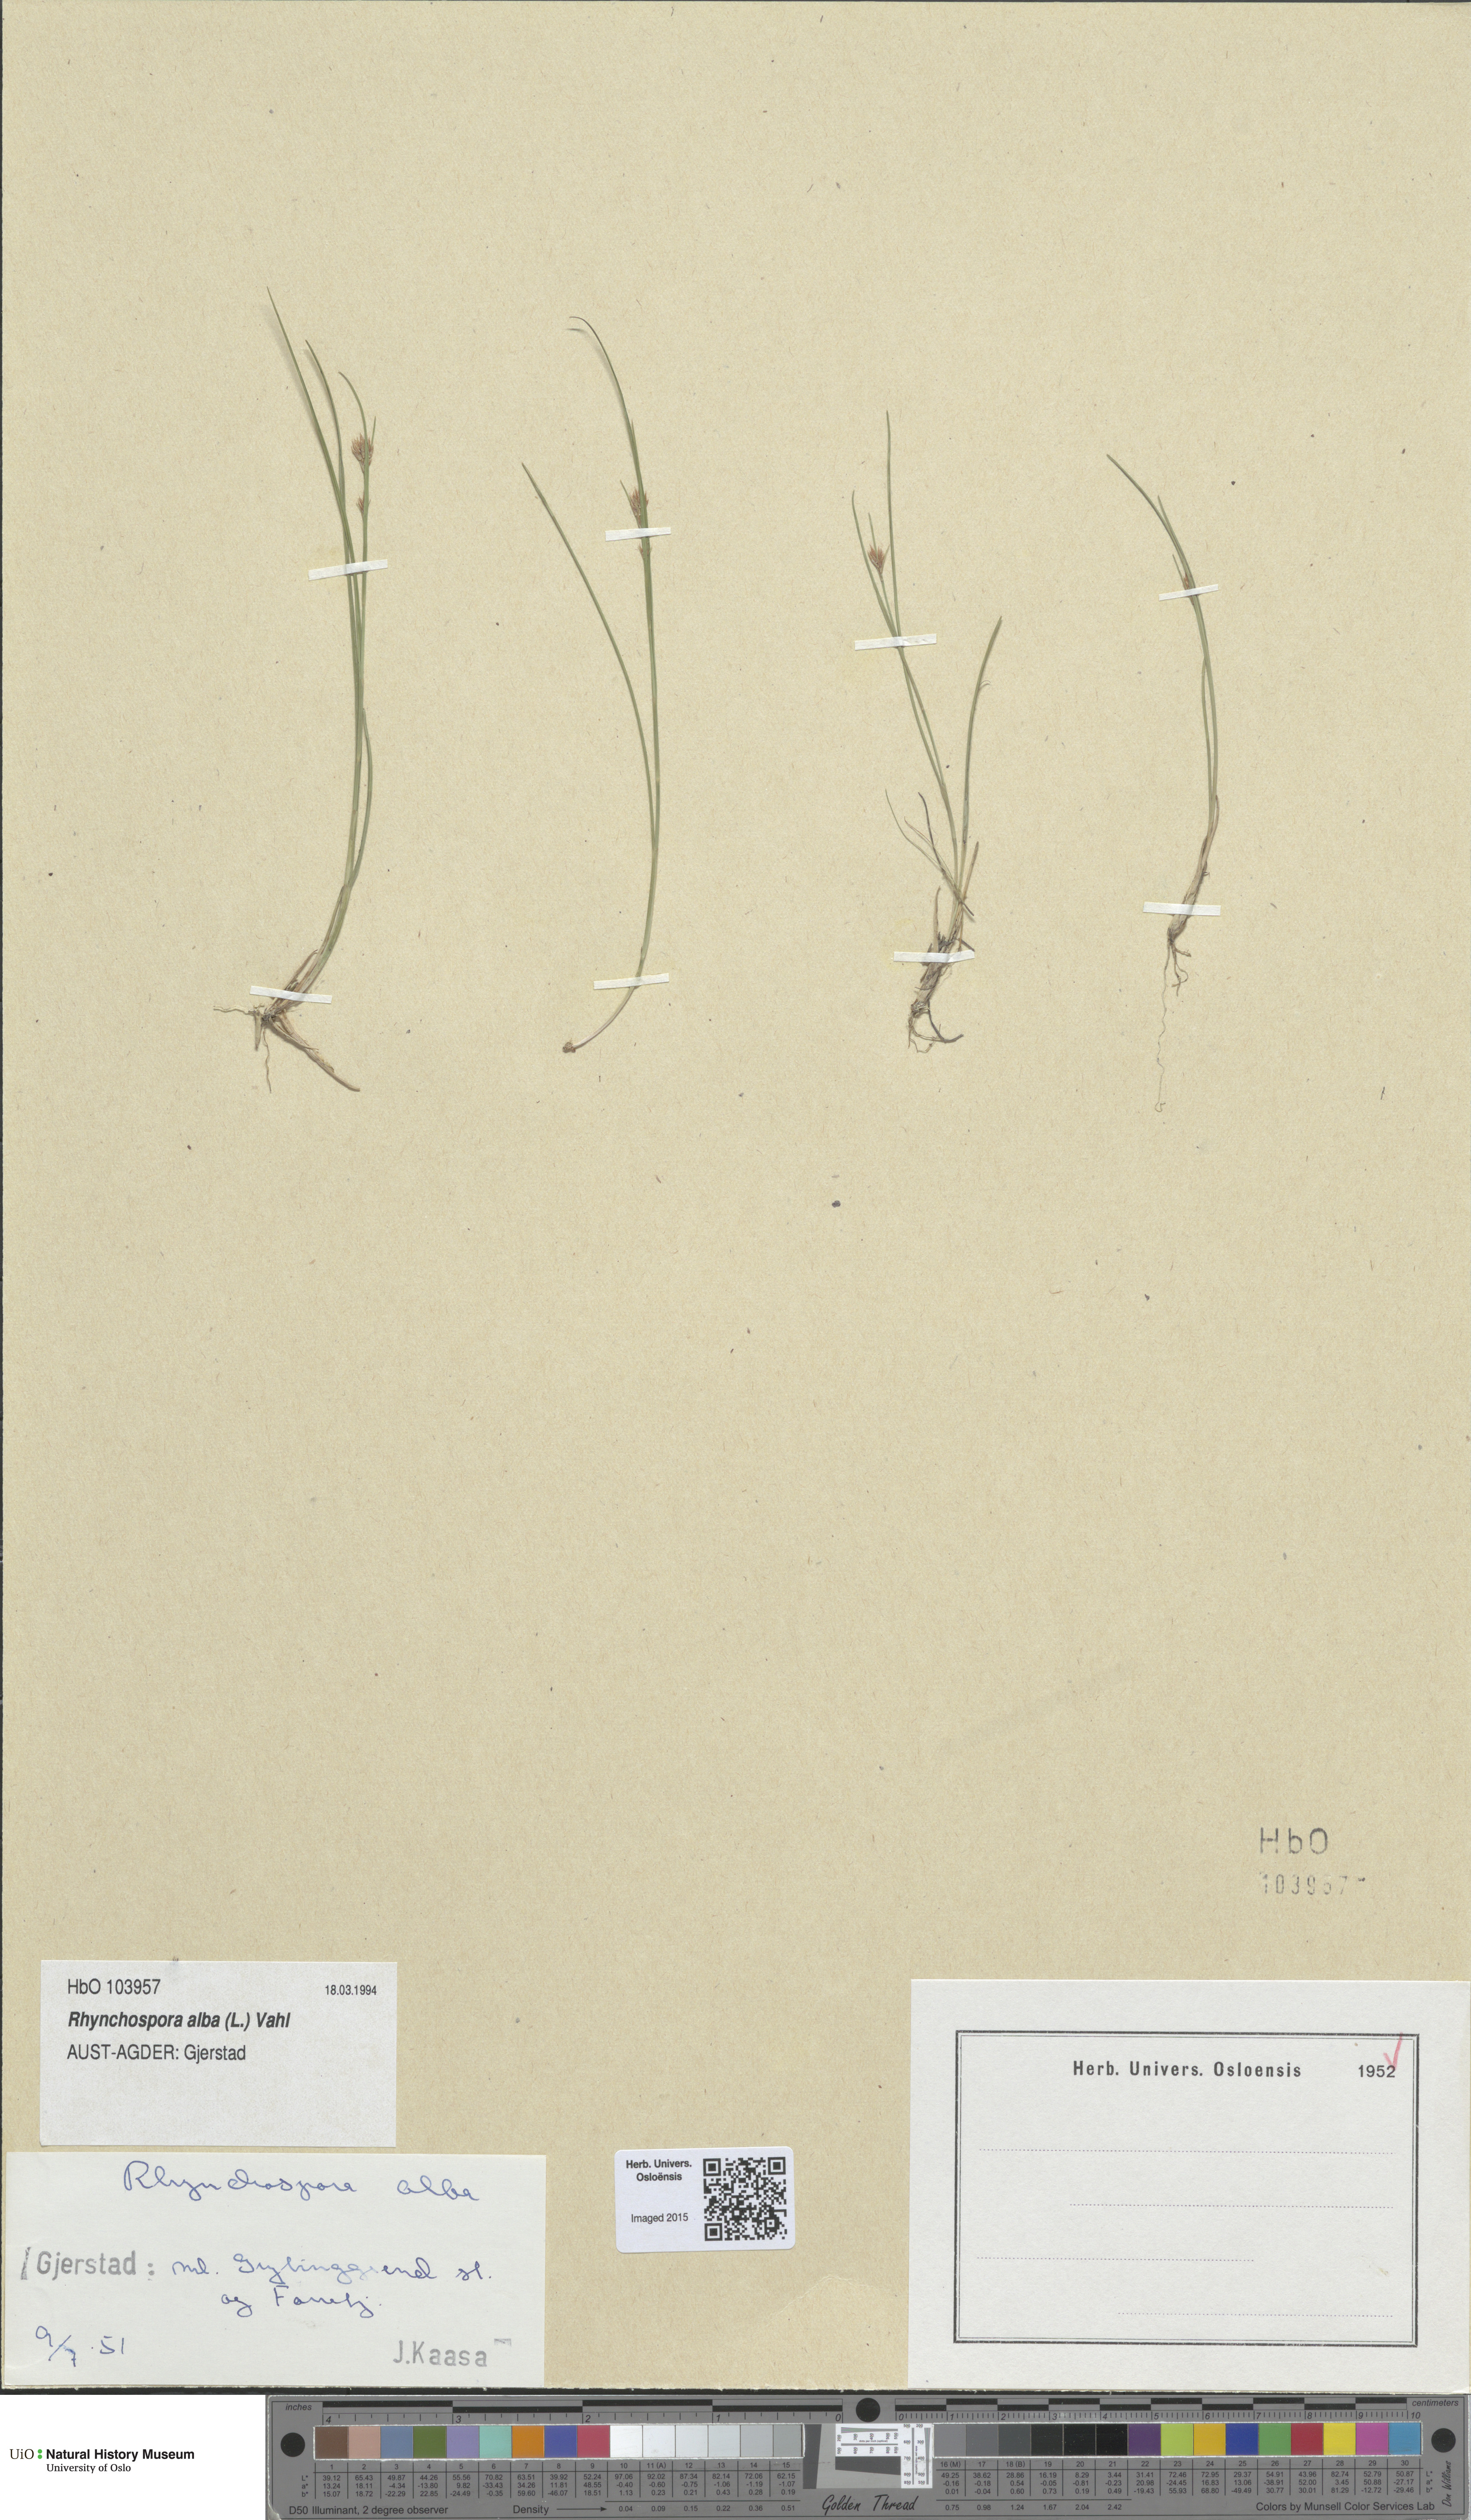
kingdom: Plantae
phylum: Tracheophyta
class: Liliopsida
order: Poales
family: Cyperaceae
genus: Rhynchospora
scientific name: Rhynchospora alba
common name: White beak-sedge
